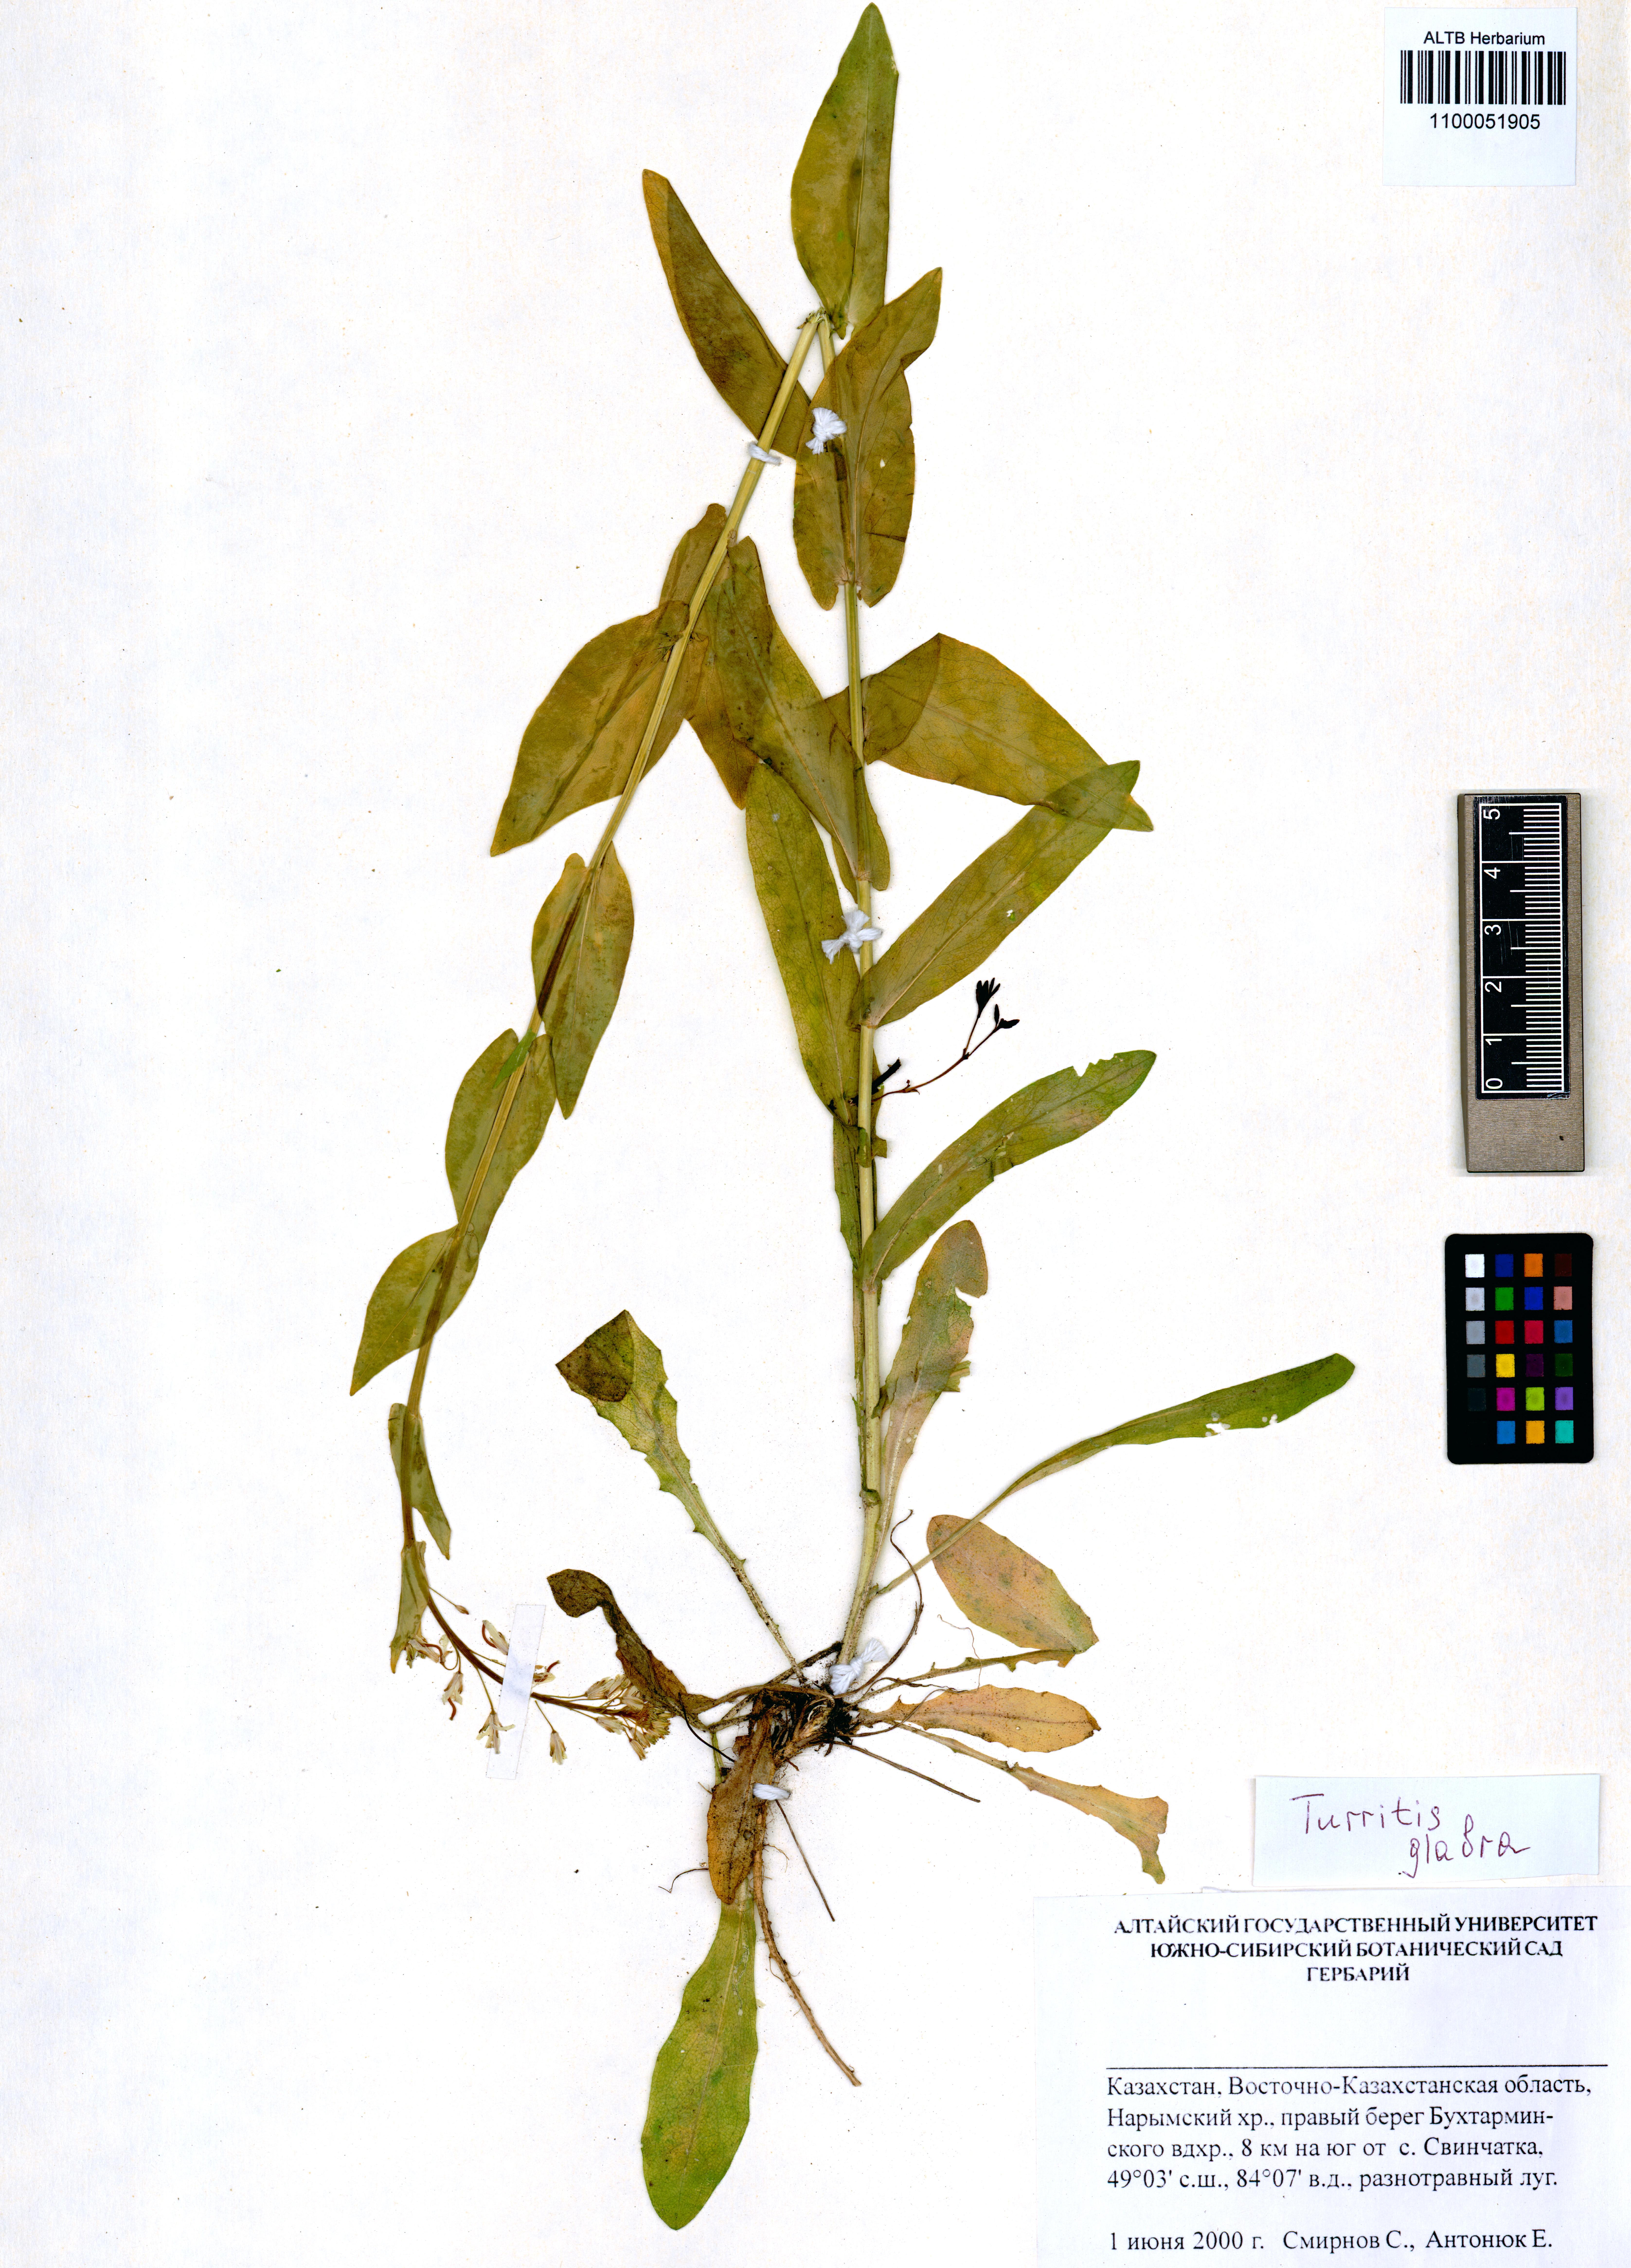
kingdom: Plantae
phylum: Tracheophyta
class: Magnoliopsida
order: Brassicales
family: Brassicaceae
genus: Turritis
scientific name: Turritis glabra
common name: Tower rockcress
